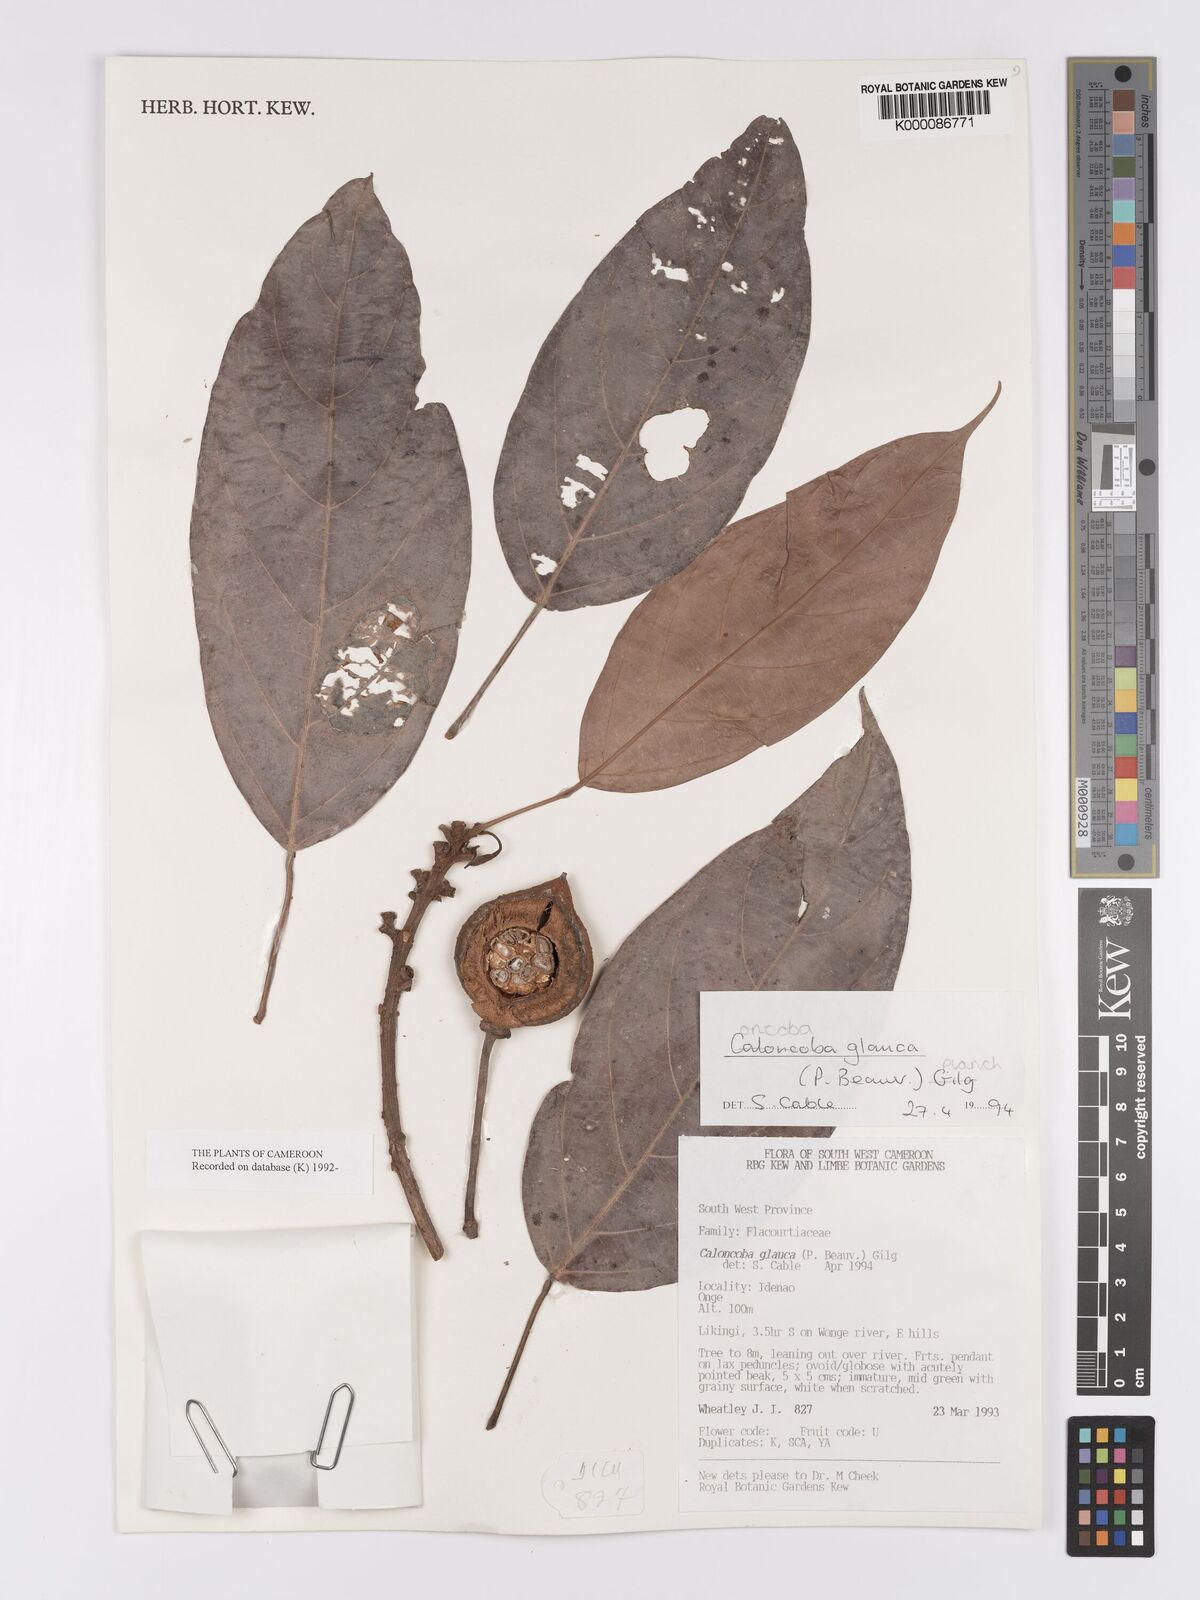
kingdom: Plantae
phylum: Tracheophyta
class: Magnoliopsida
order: Malpighiales
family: Achariaceae
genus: Caloncoba
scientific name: Caloncoba glauca
